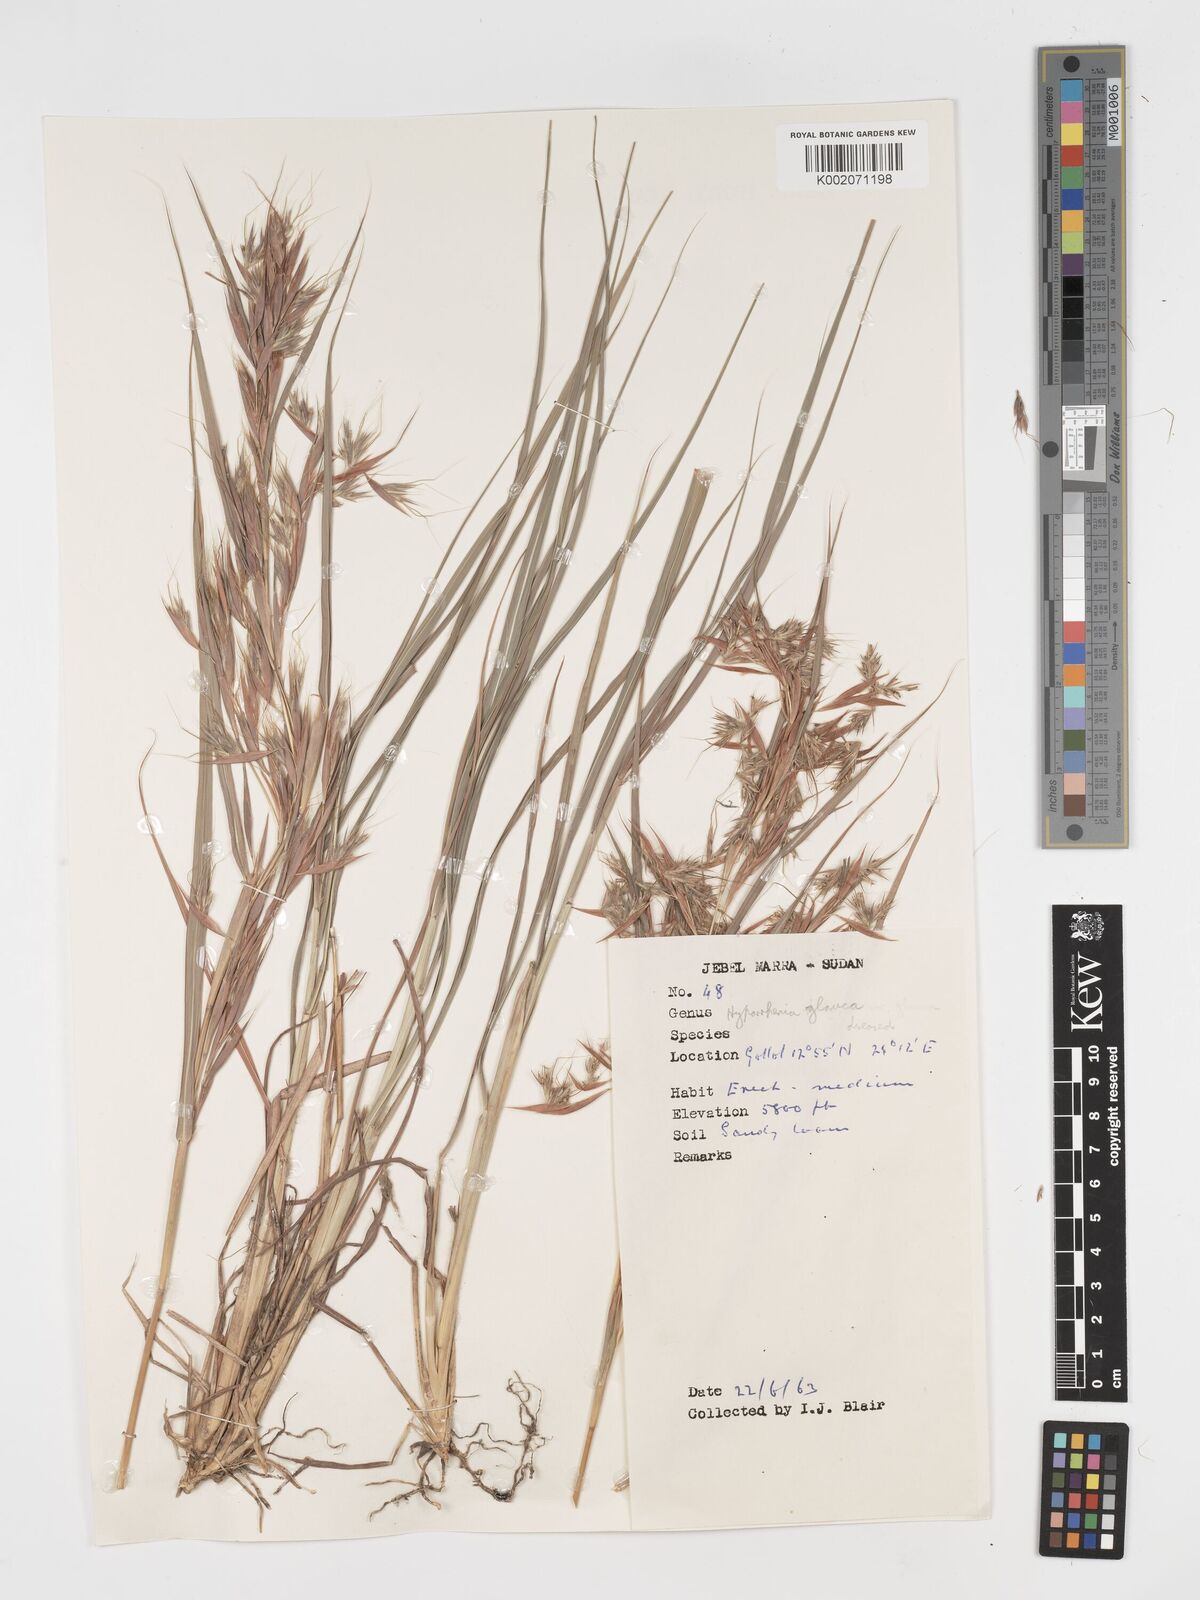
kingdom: Plantae
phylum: Tracheophyta
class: Liliopsida
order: Poales
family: Poaceae
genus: Hyparrhenia
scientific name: Hyparrhenia tamba
